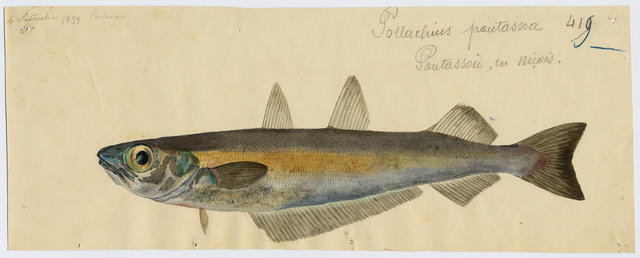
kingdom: Animalia
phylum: Chordata
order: Gadiformes
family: Gadidae
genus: Micromesistius
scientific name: Micromesistius poutassou
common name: Blue whiting
